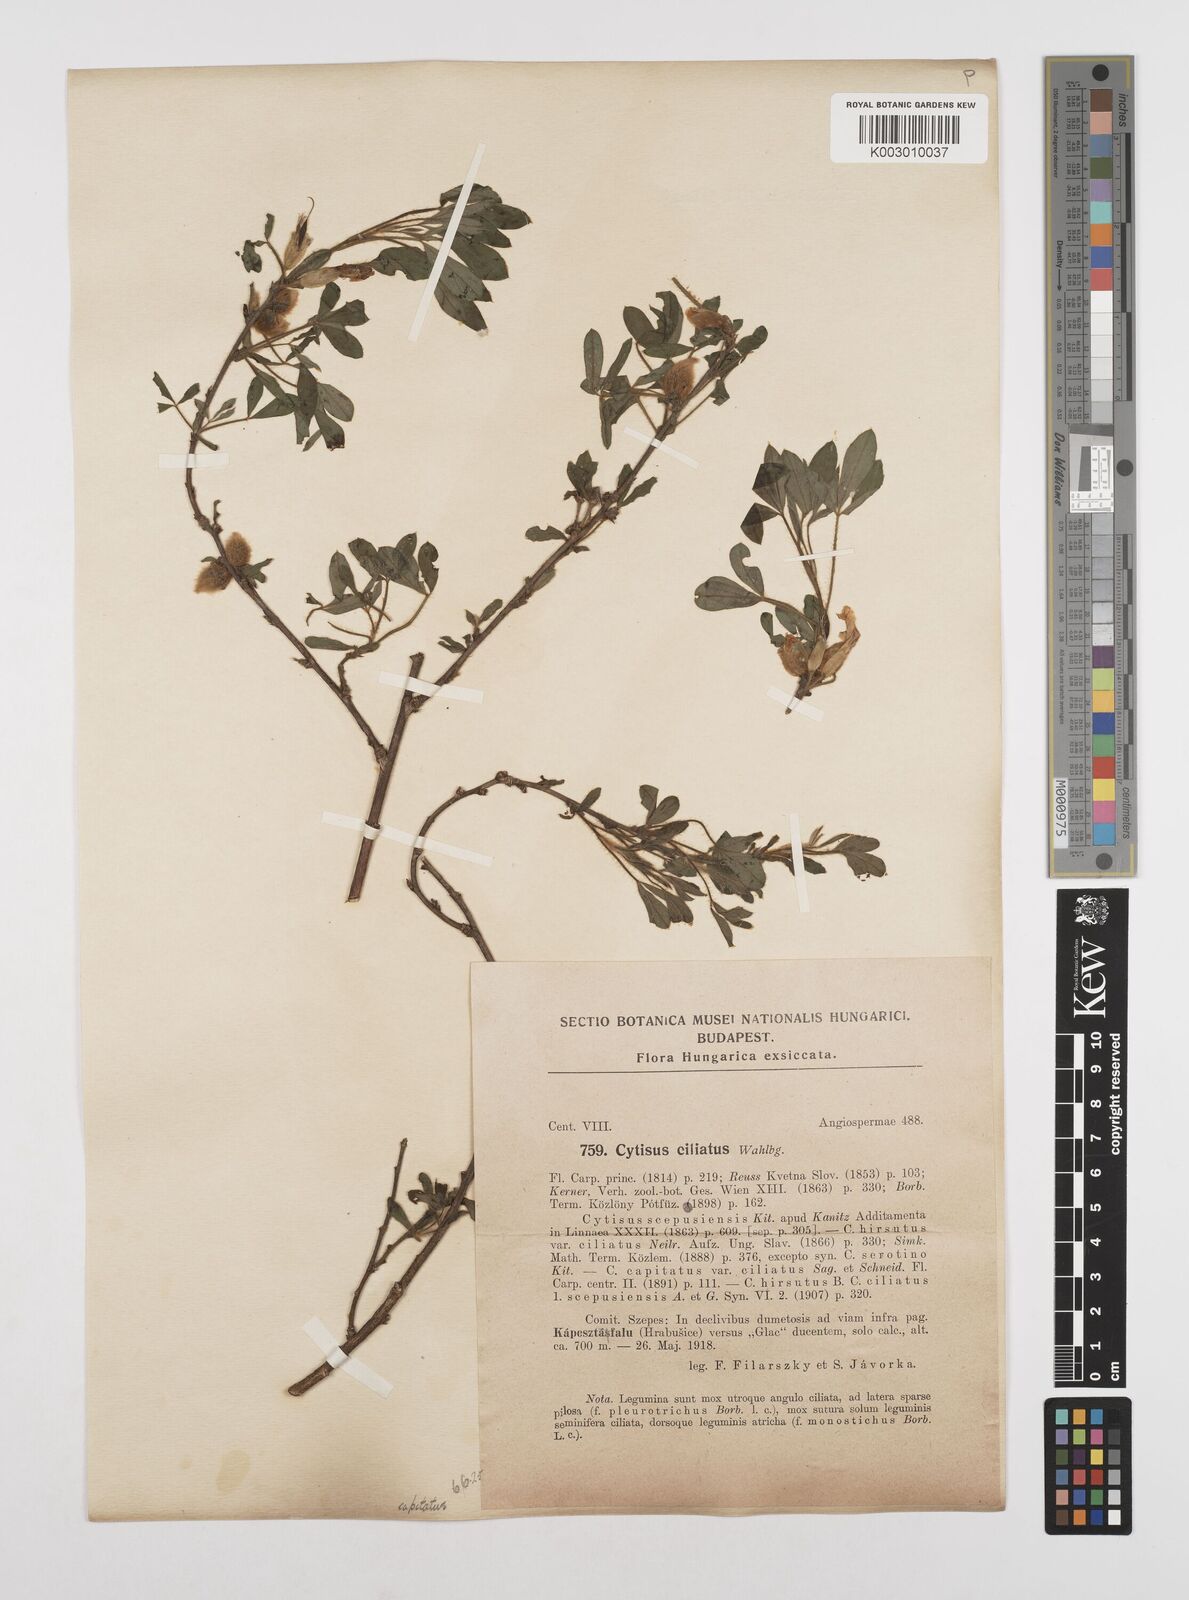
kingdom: Plantae
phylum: Tracheophyta
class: Magnoliopsida
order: Fabales
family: Fabaceae
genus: Chamaecytisus
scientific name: Chamaecytisus hirsutus
